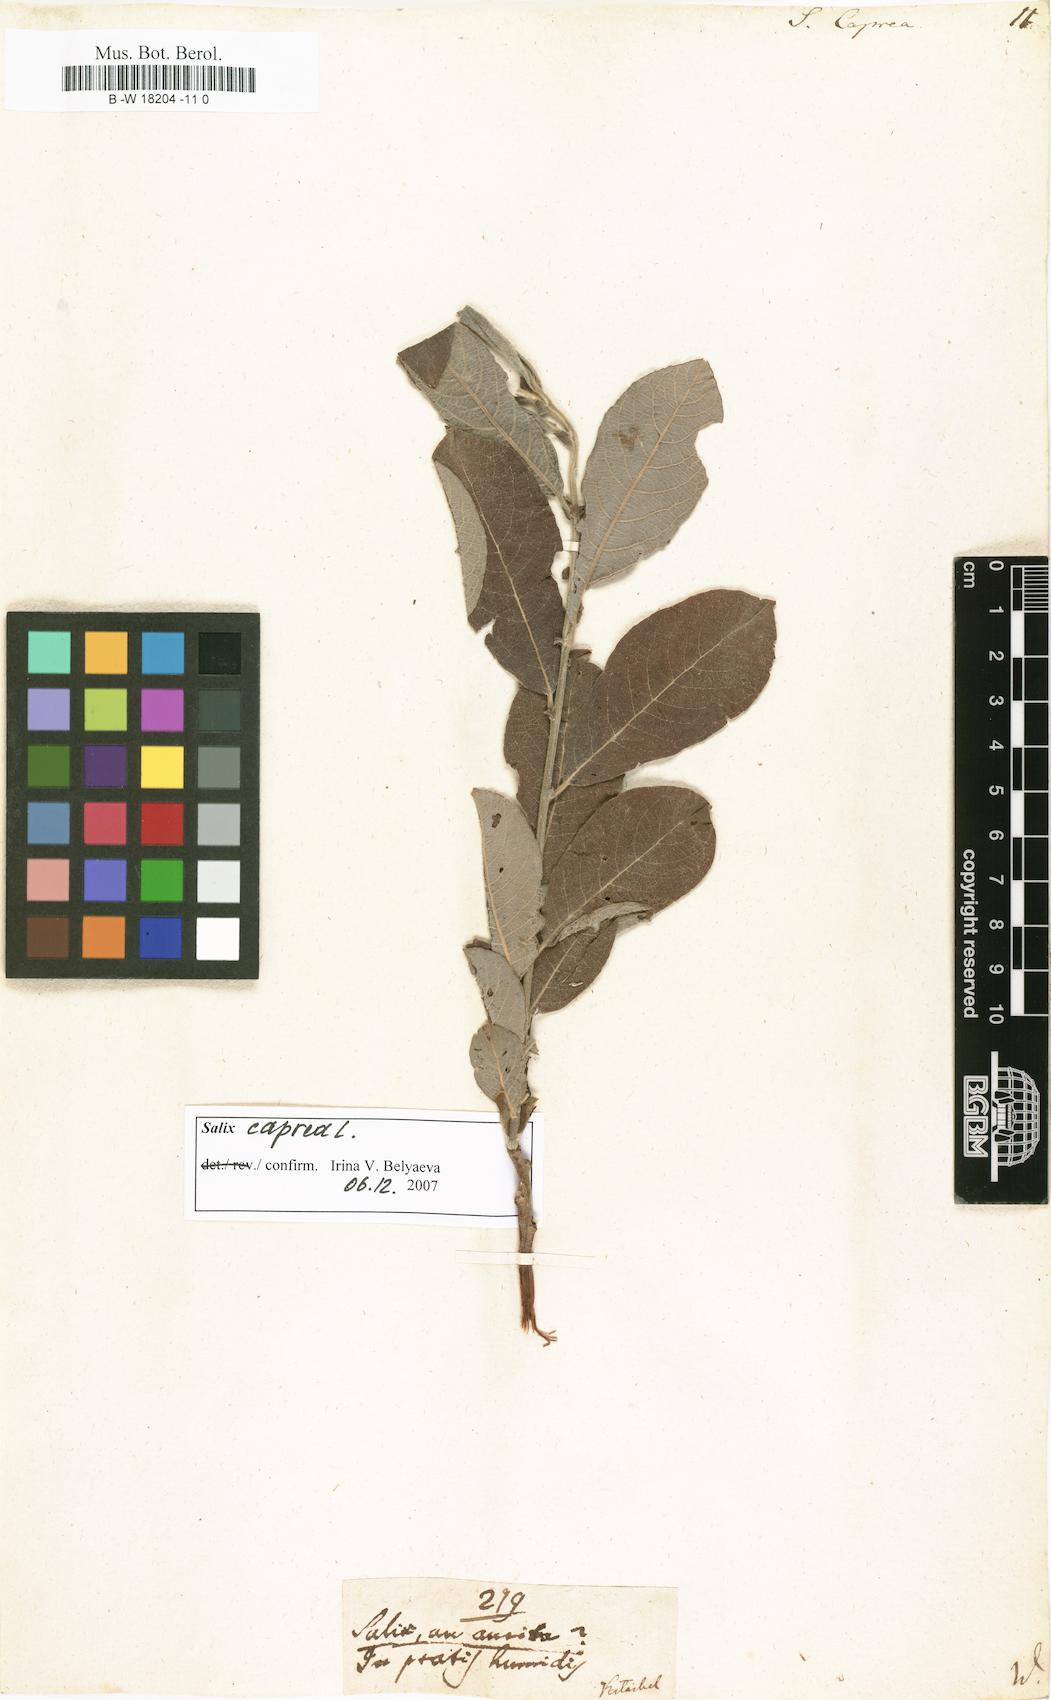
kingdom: Plantae
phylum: Tracheophyta
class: Magnoliopsida
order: Malpighiales
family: Salicaceae
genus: Salix
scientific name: Salix caprea
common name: Goat willow
